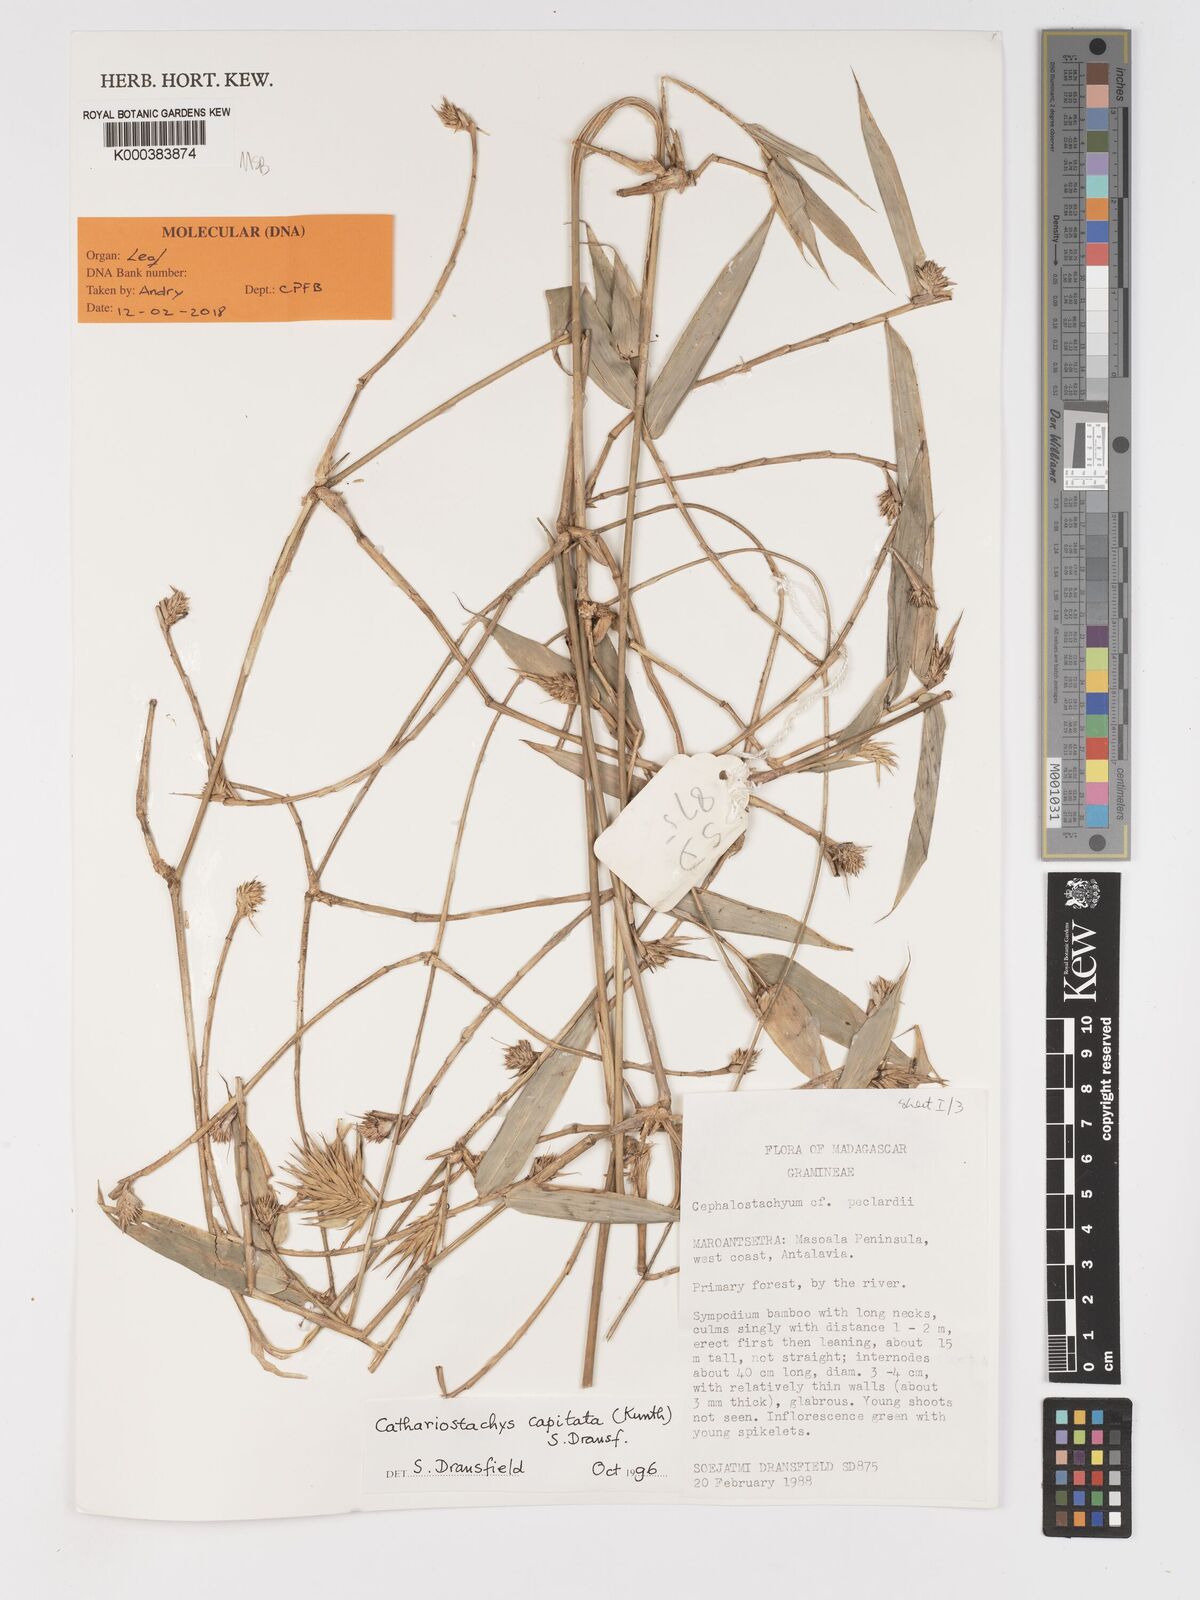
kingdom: Plantae
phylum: Tracheophyta
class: Liliopsida
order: Poales
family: Poaceae
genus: Cathariostachys
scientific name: Cathariostachys capitata
